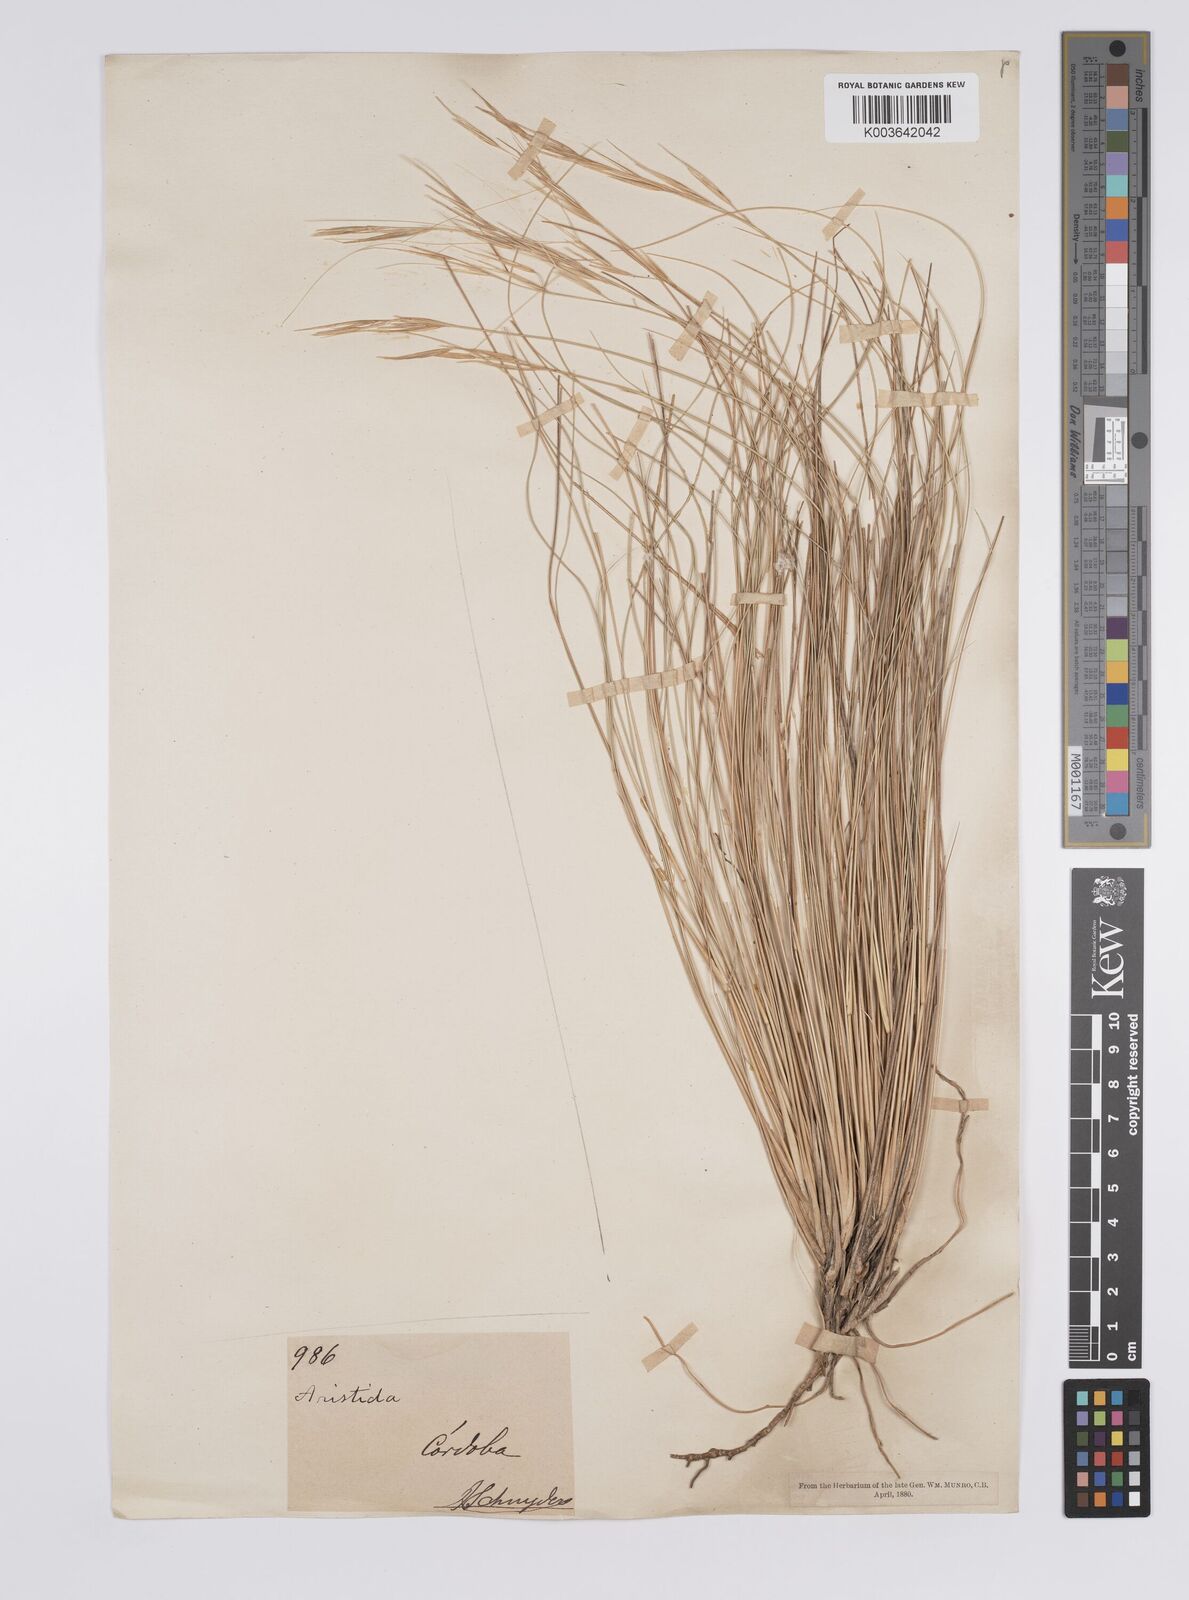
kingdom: Plantae
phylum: Tracheophyta
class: Liliopsida
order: Poales
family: Poaceae
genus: Aristida
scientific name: Aristida pallens
